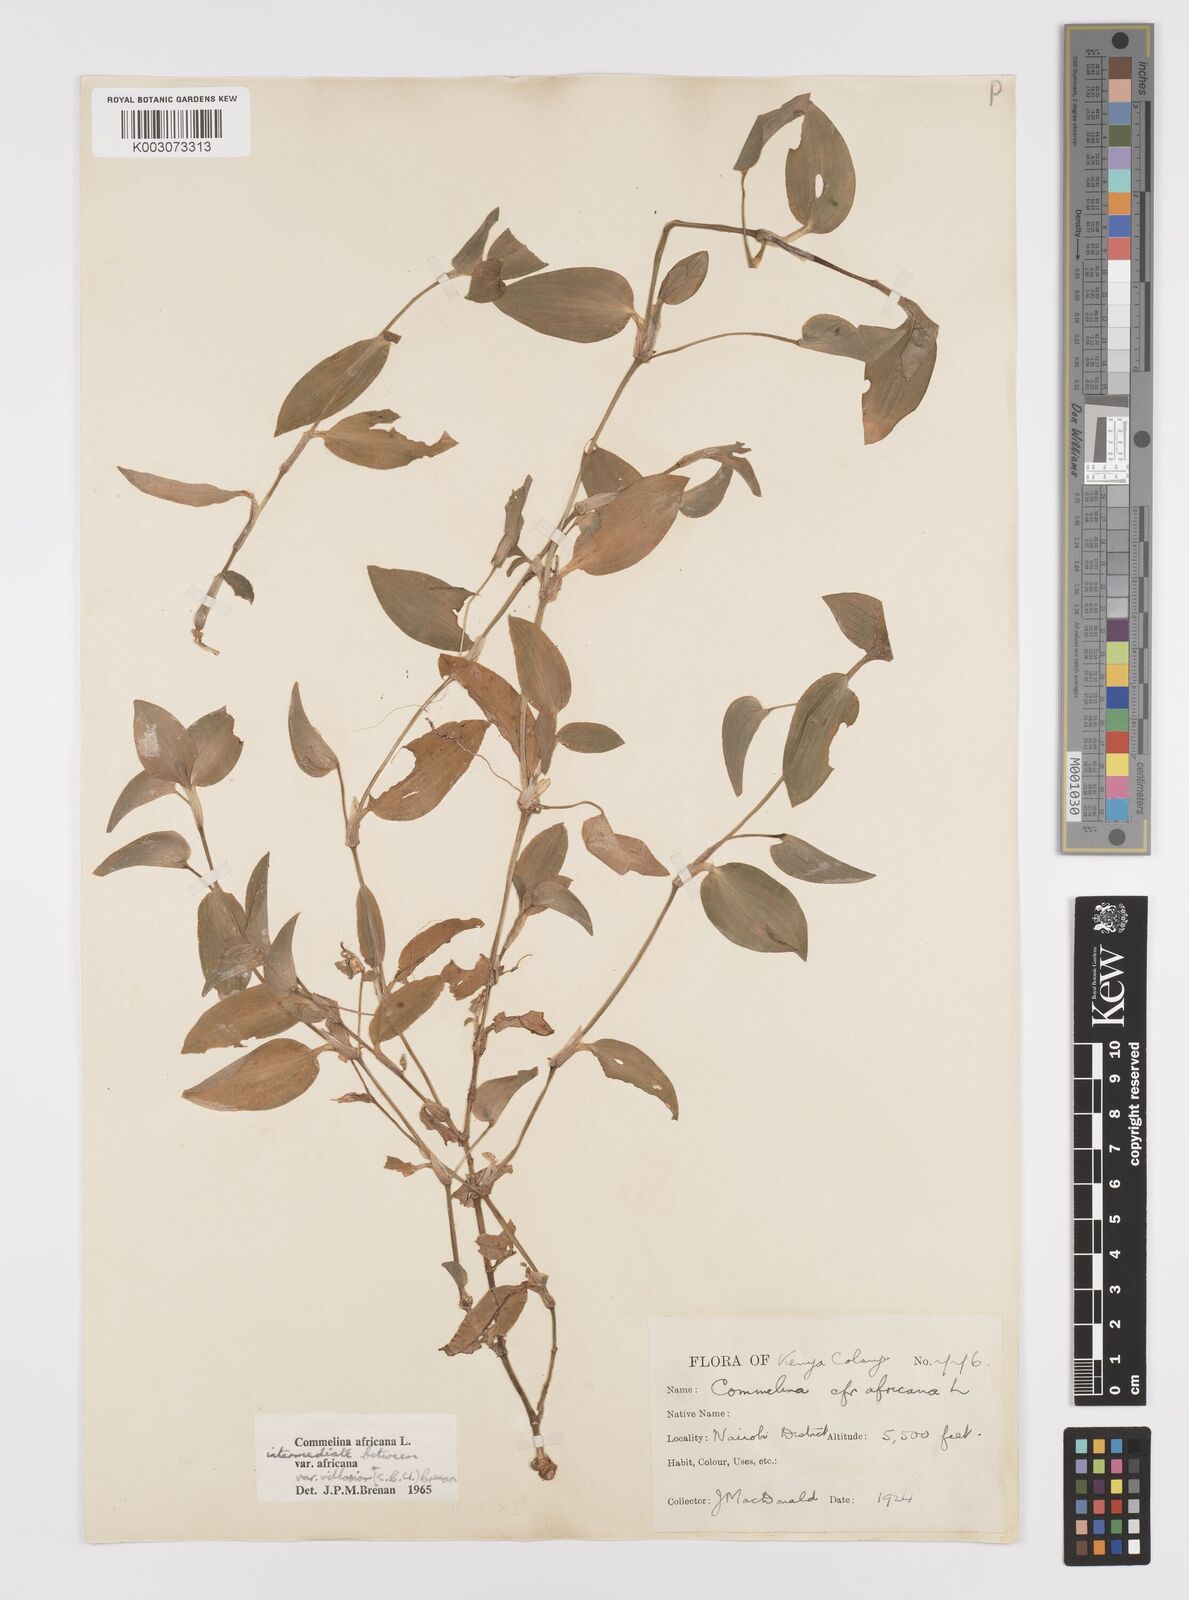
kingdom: Plantae
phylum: Tracheophyta
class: Liliopsida
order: Commelinales
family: Commelinaceae
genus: Commelina
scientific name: Commelina africana
